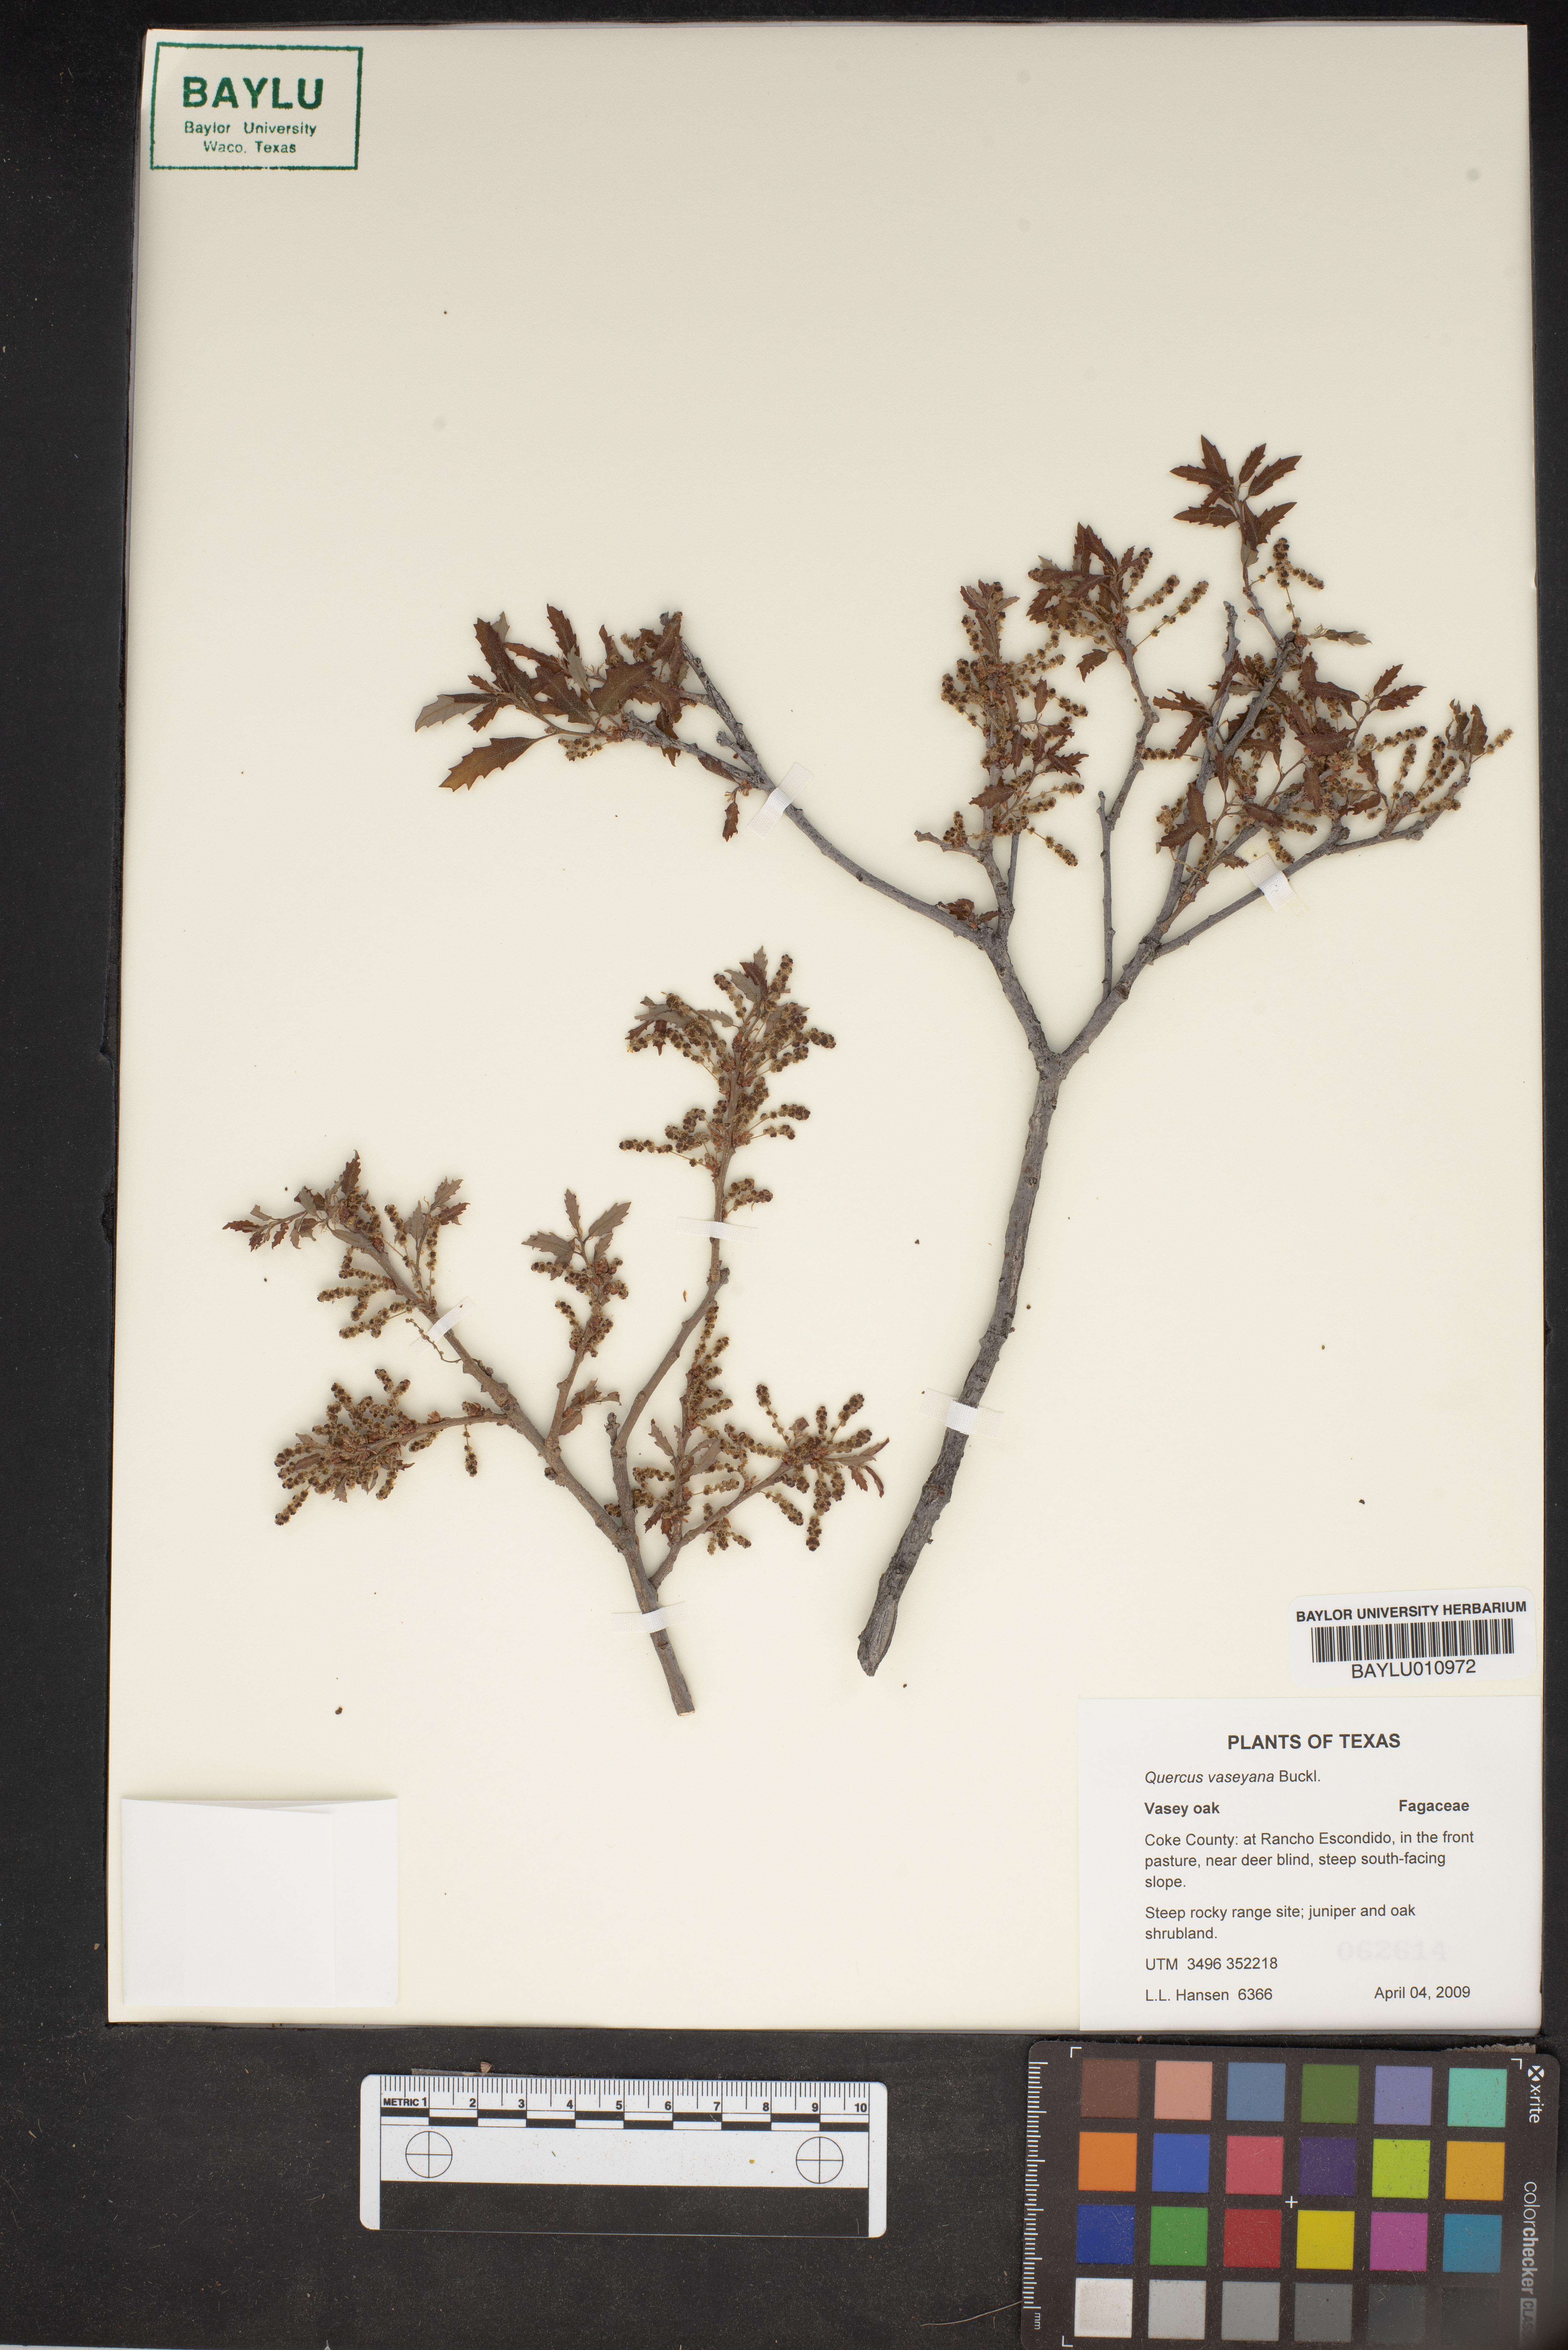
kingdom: Plantae
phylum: Tracheophyta
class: Magnoliopsida
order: Fagales
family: Fagaceae
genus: Quercus
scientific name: Quercus vaseyana
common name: Sandpaper oak
